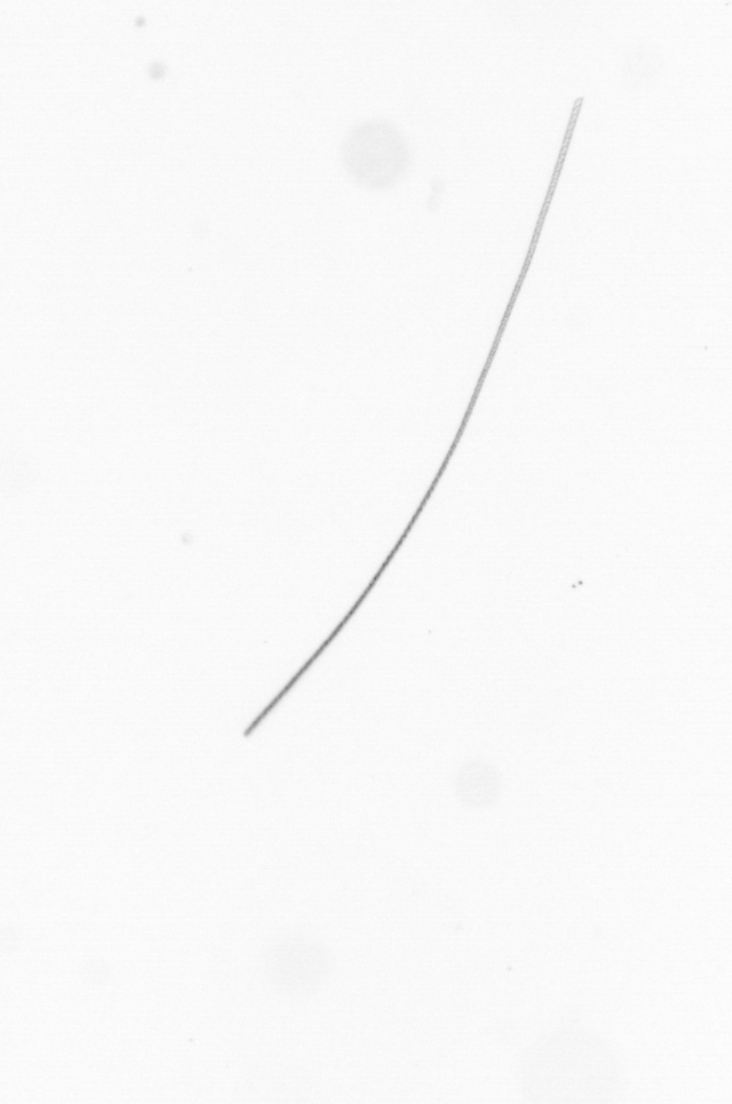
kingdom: Chromista
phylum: Ochrophyta
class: Bacillariophyceae
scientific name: Bacillariophyceae
